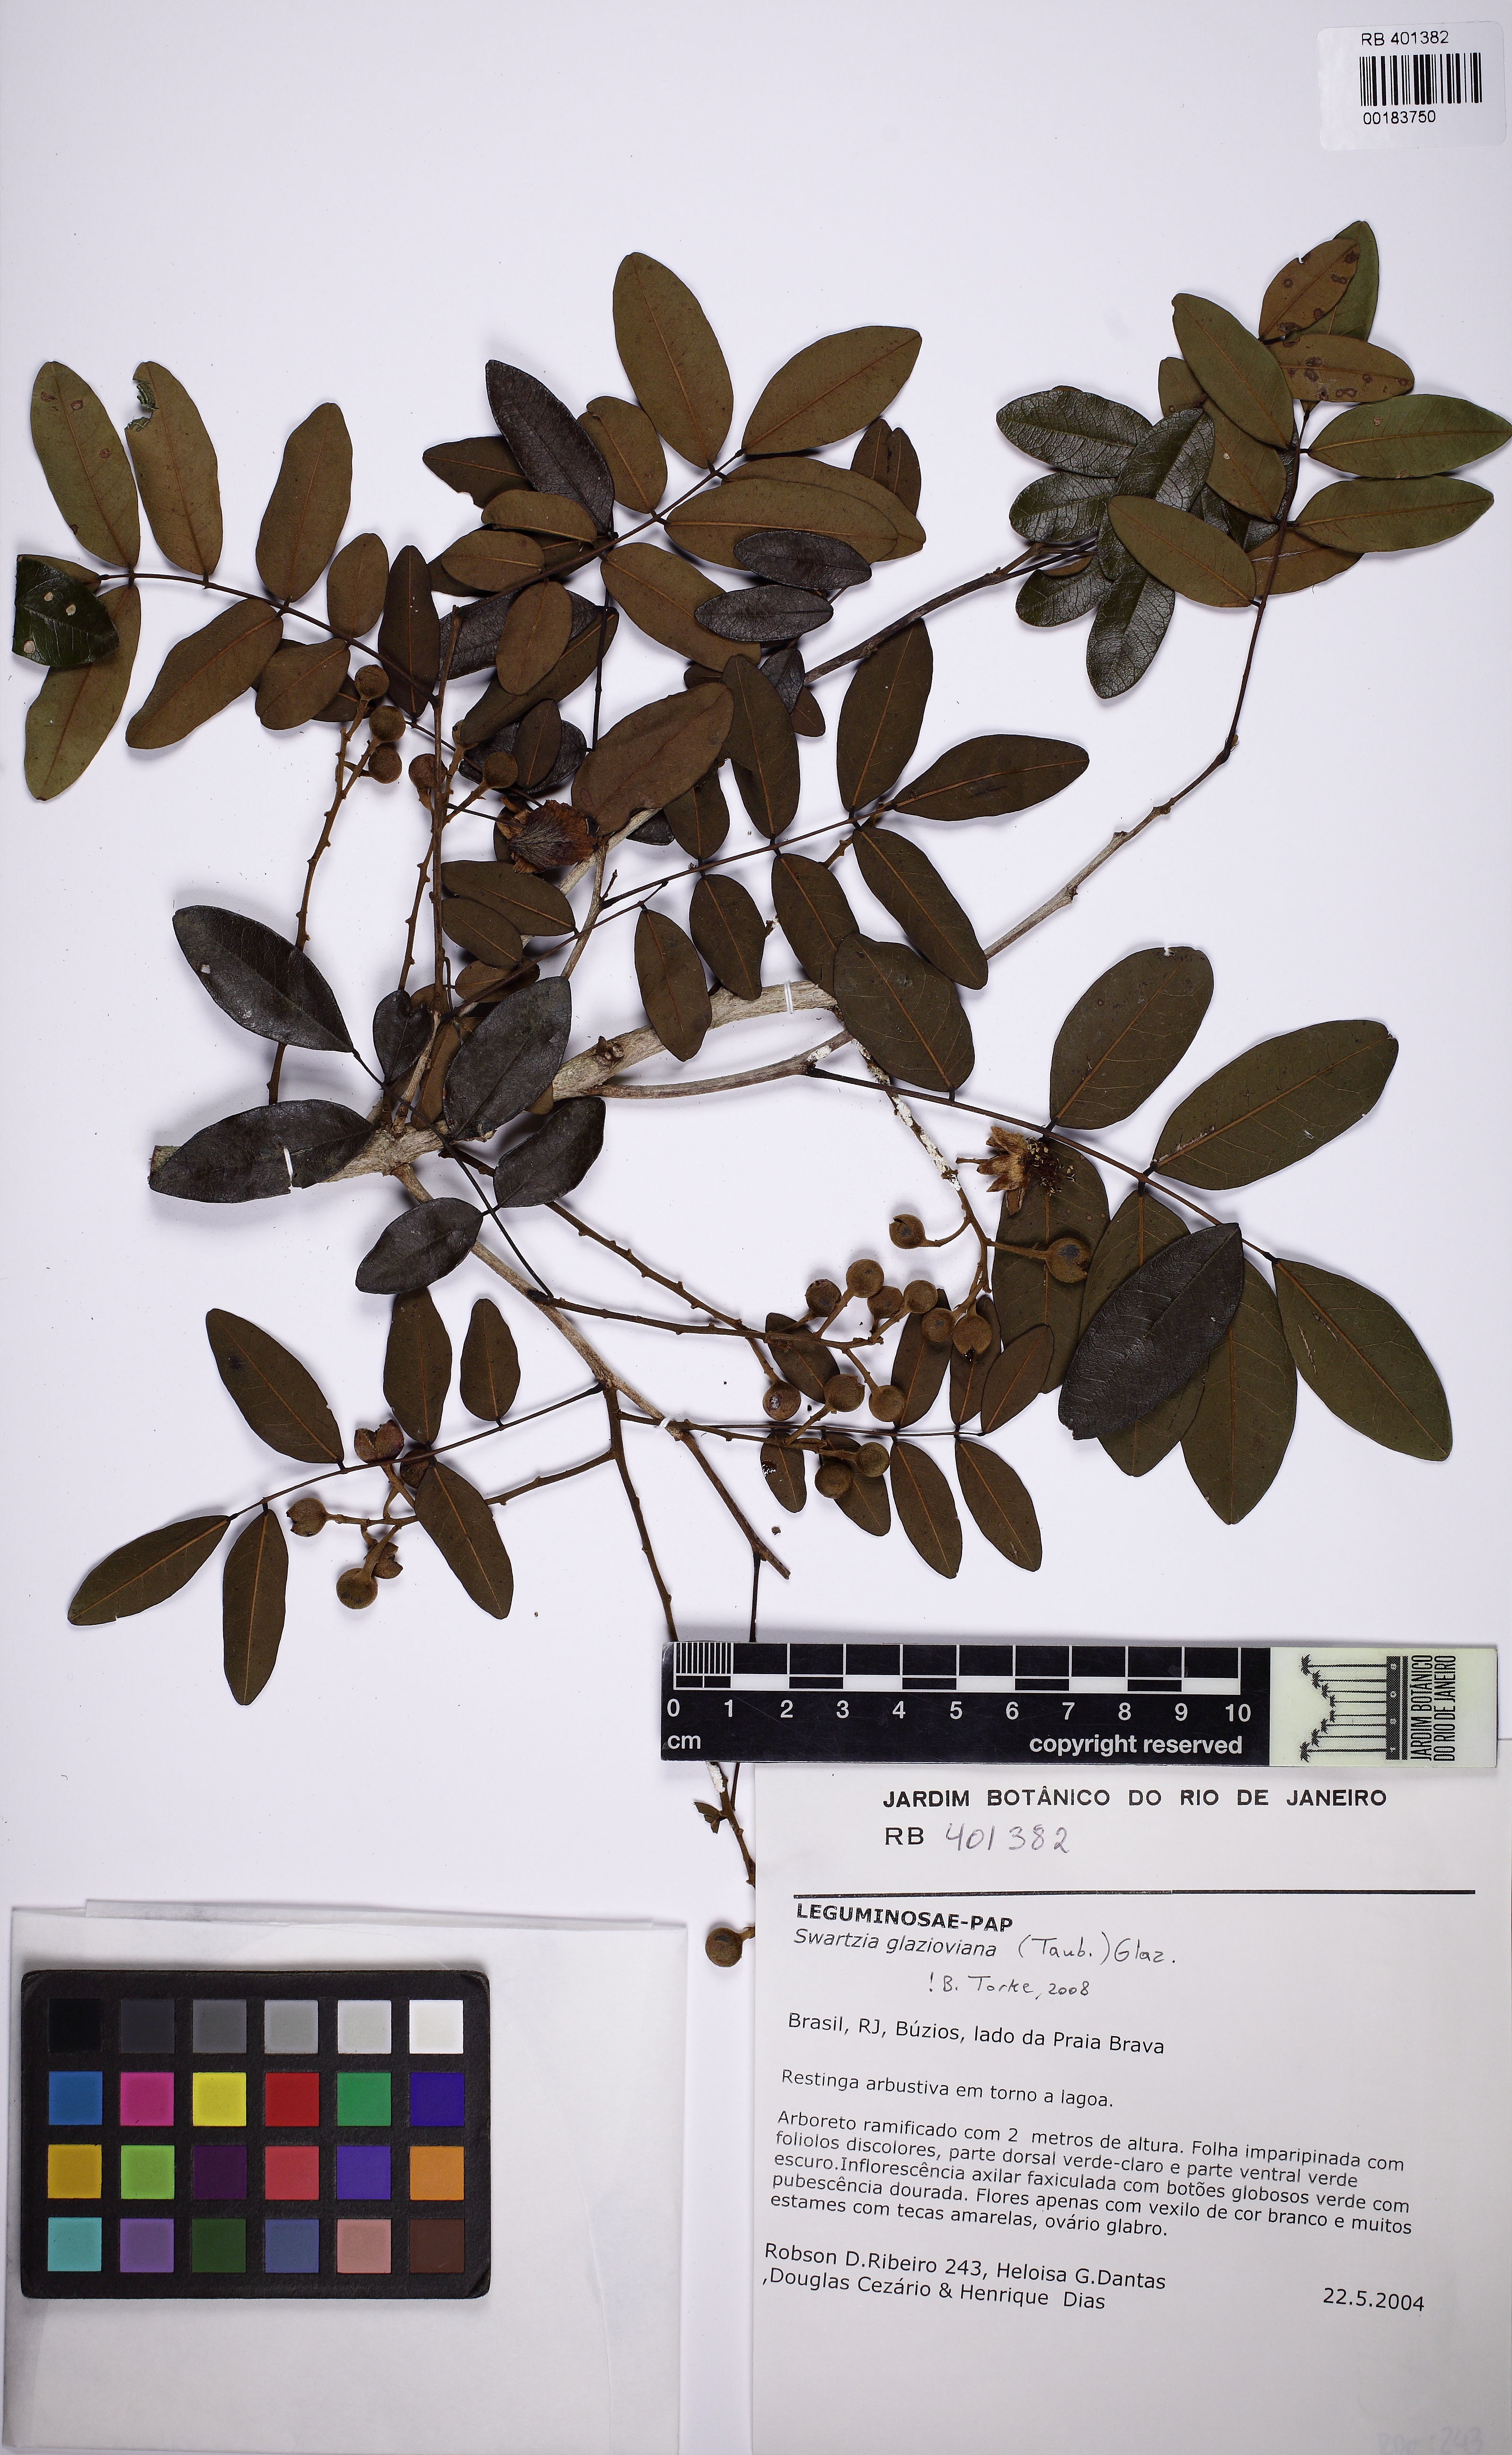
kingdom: Plantae
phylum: Tracheophyta
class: Magnoliopsida
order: Fabales
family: Fabaceae
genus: Swartzia
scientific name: Swartzia glazioviana
